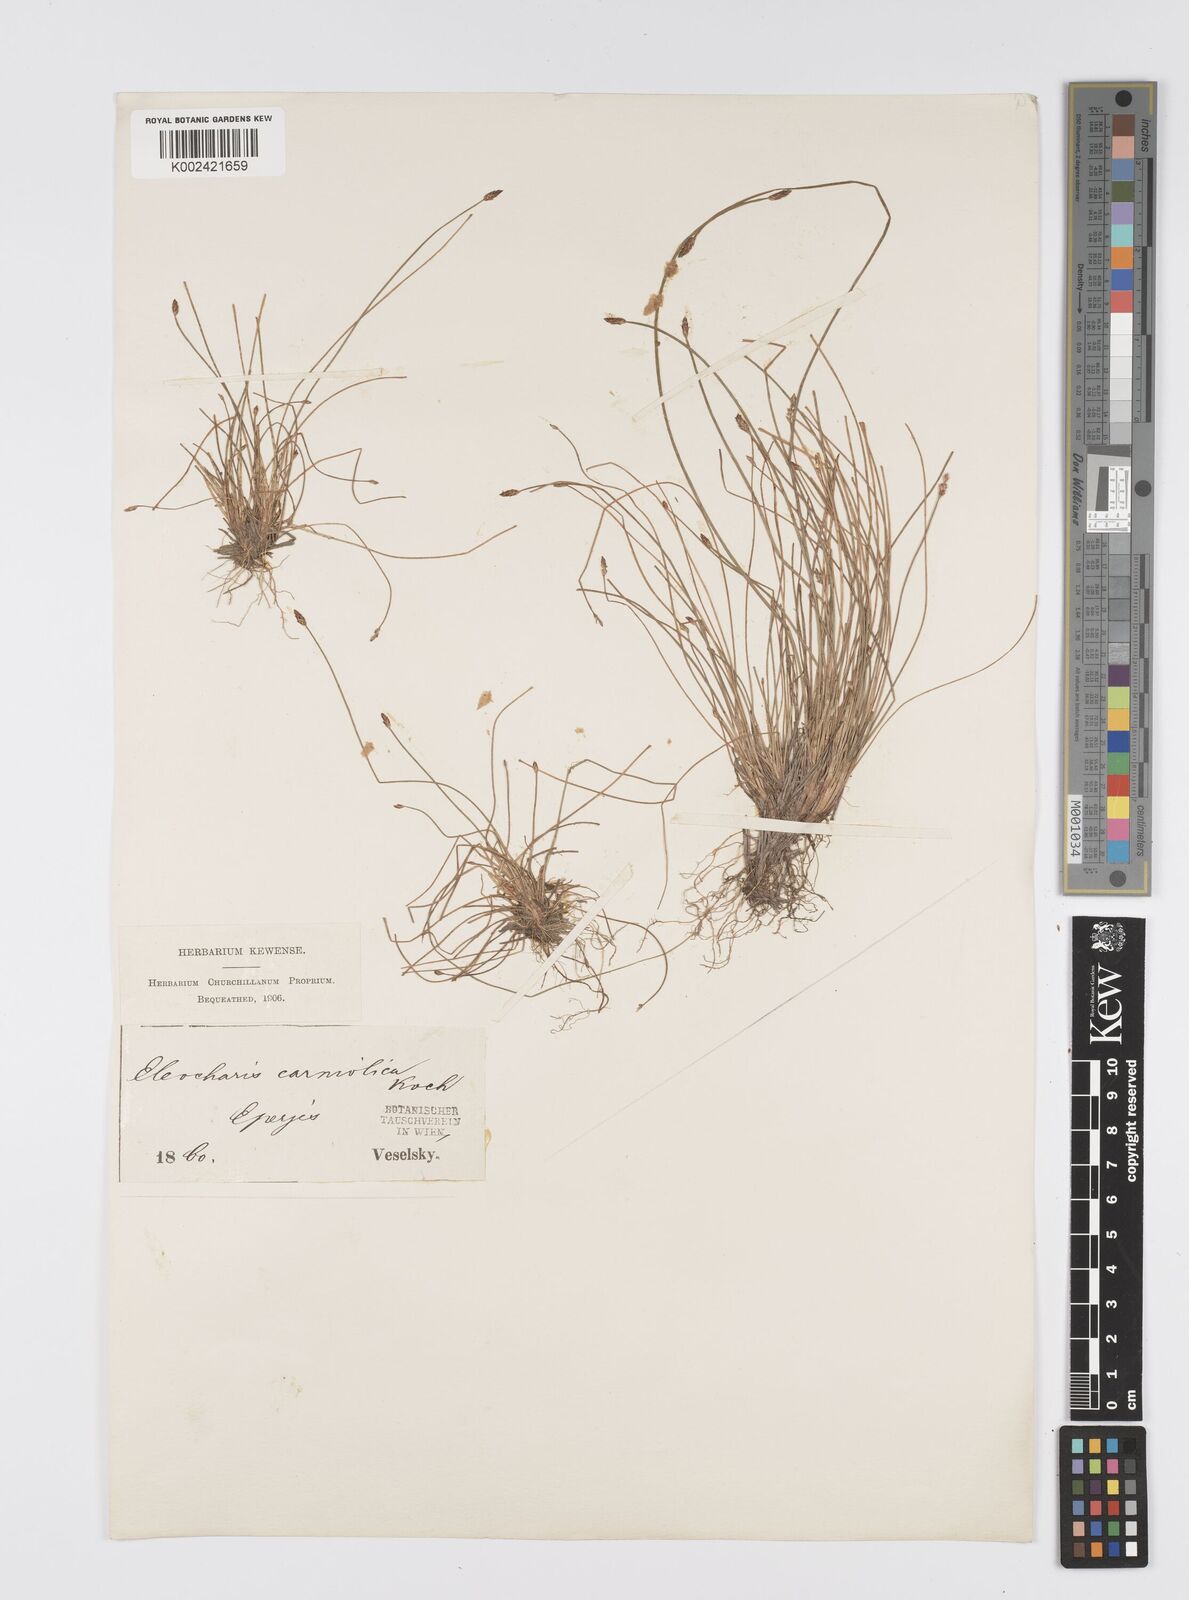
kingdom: Plantae
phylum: Tracheophyta
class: Liliopsida
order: Poales
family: Cyperaceae
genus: Eleocharis
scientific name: Eleocharis carniolica
